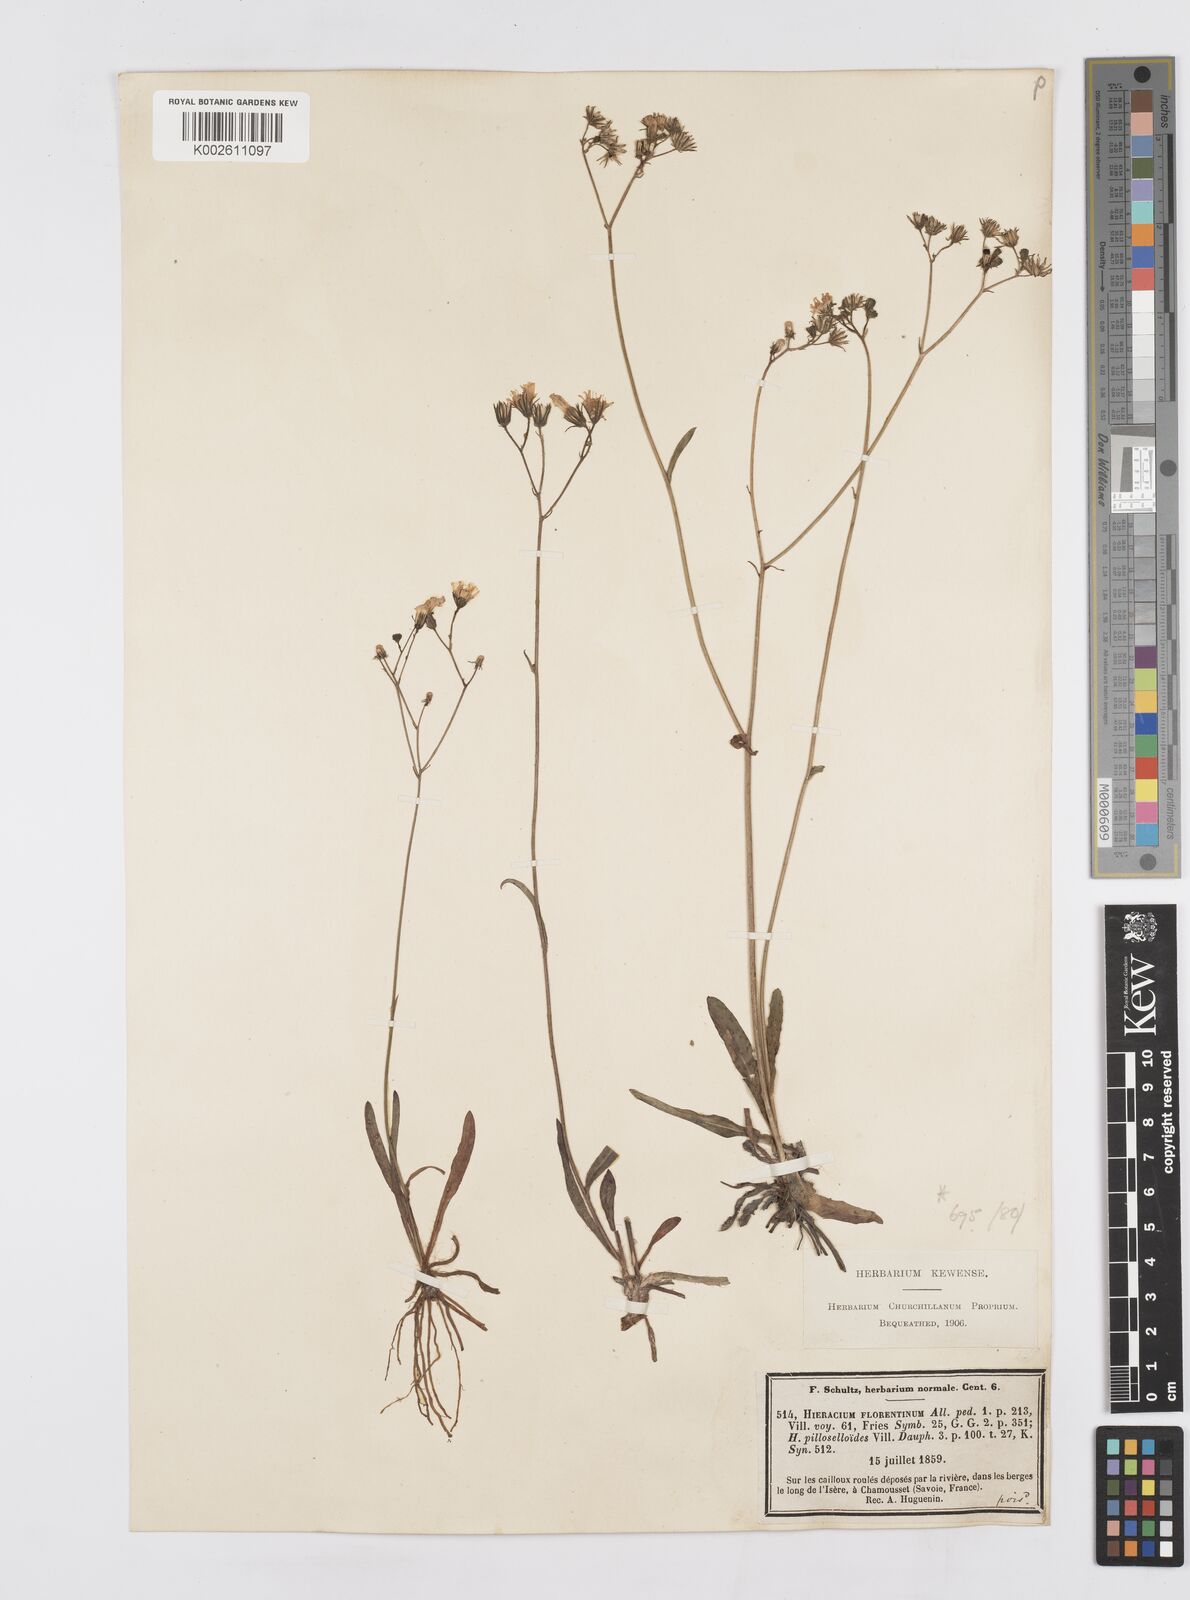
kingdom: Plantae
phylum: Tracheophyta
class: Magnoliopsida
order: Asterales
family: Asteraceae
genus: Pilosella
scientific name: Pilosella piloselloides
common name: Glaucous king-devil
